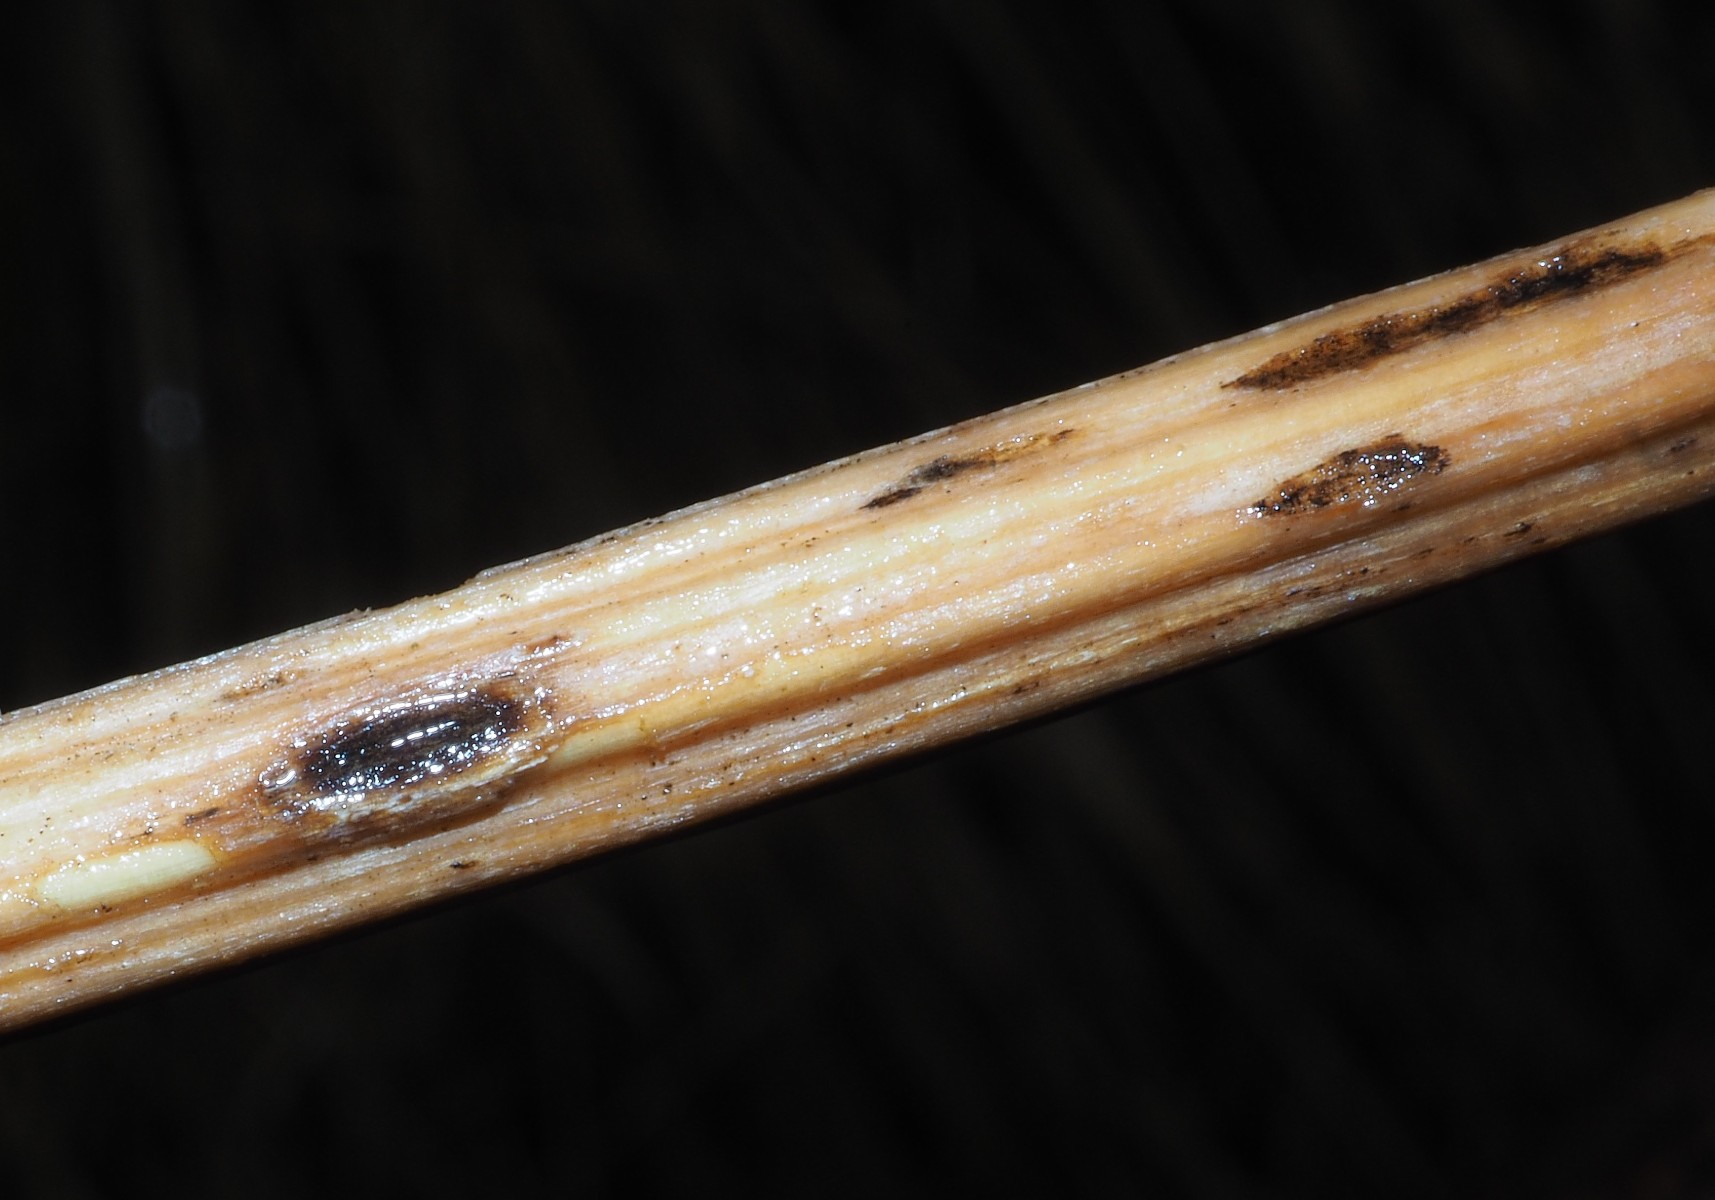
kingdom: Fungi
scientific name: Fungi
